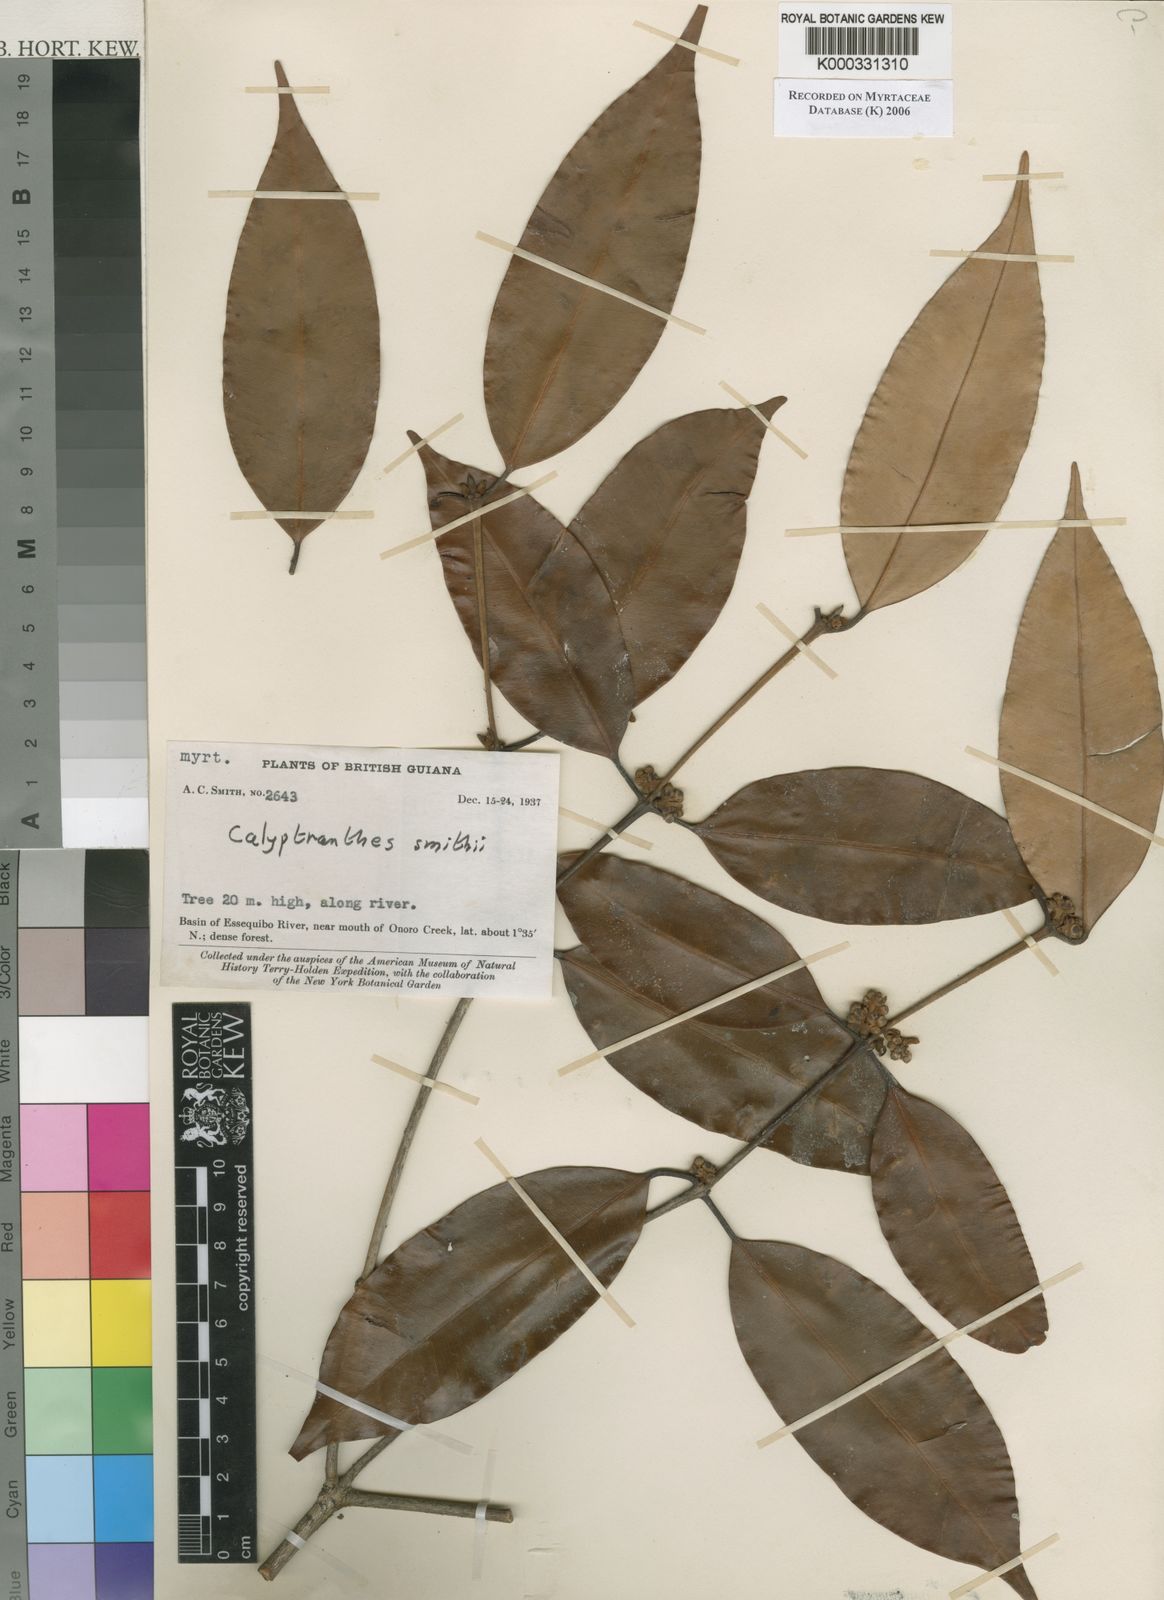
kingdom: Plantae
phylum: Tracheophyta
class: Magnoliopsida
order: Myrtales
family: Myrtaceae
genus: Myrcia
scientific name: Myrcia neosmithii
